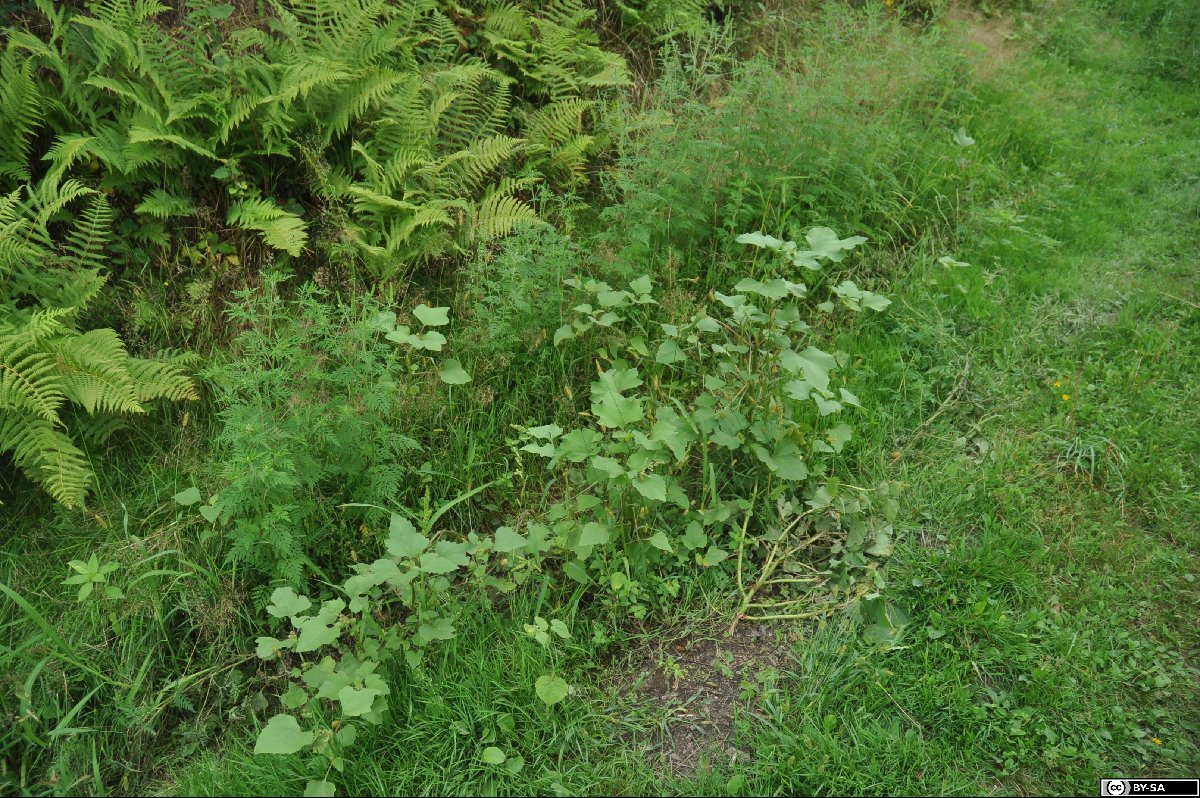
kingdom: Plantae
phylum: Tracheophyta
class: Magnoliopsida
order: Asterales
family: Asteraceae
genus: Xanthium
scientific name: Xanthium orientale
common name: Californian burr
